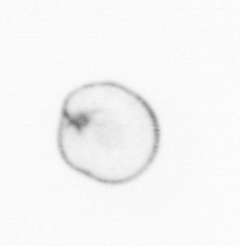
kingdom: Chromista
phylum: Myzozoa
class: Dinophyceae
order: Noctilucales
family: Noctilucaceae
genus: Noctiluca
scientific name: Noctiluca scintillans
